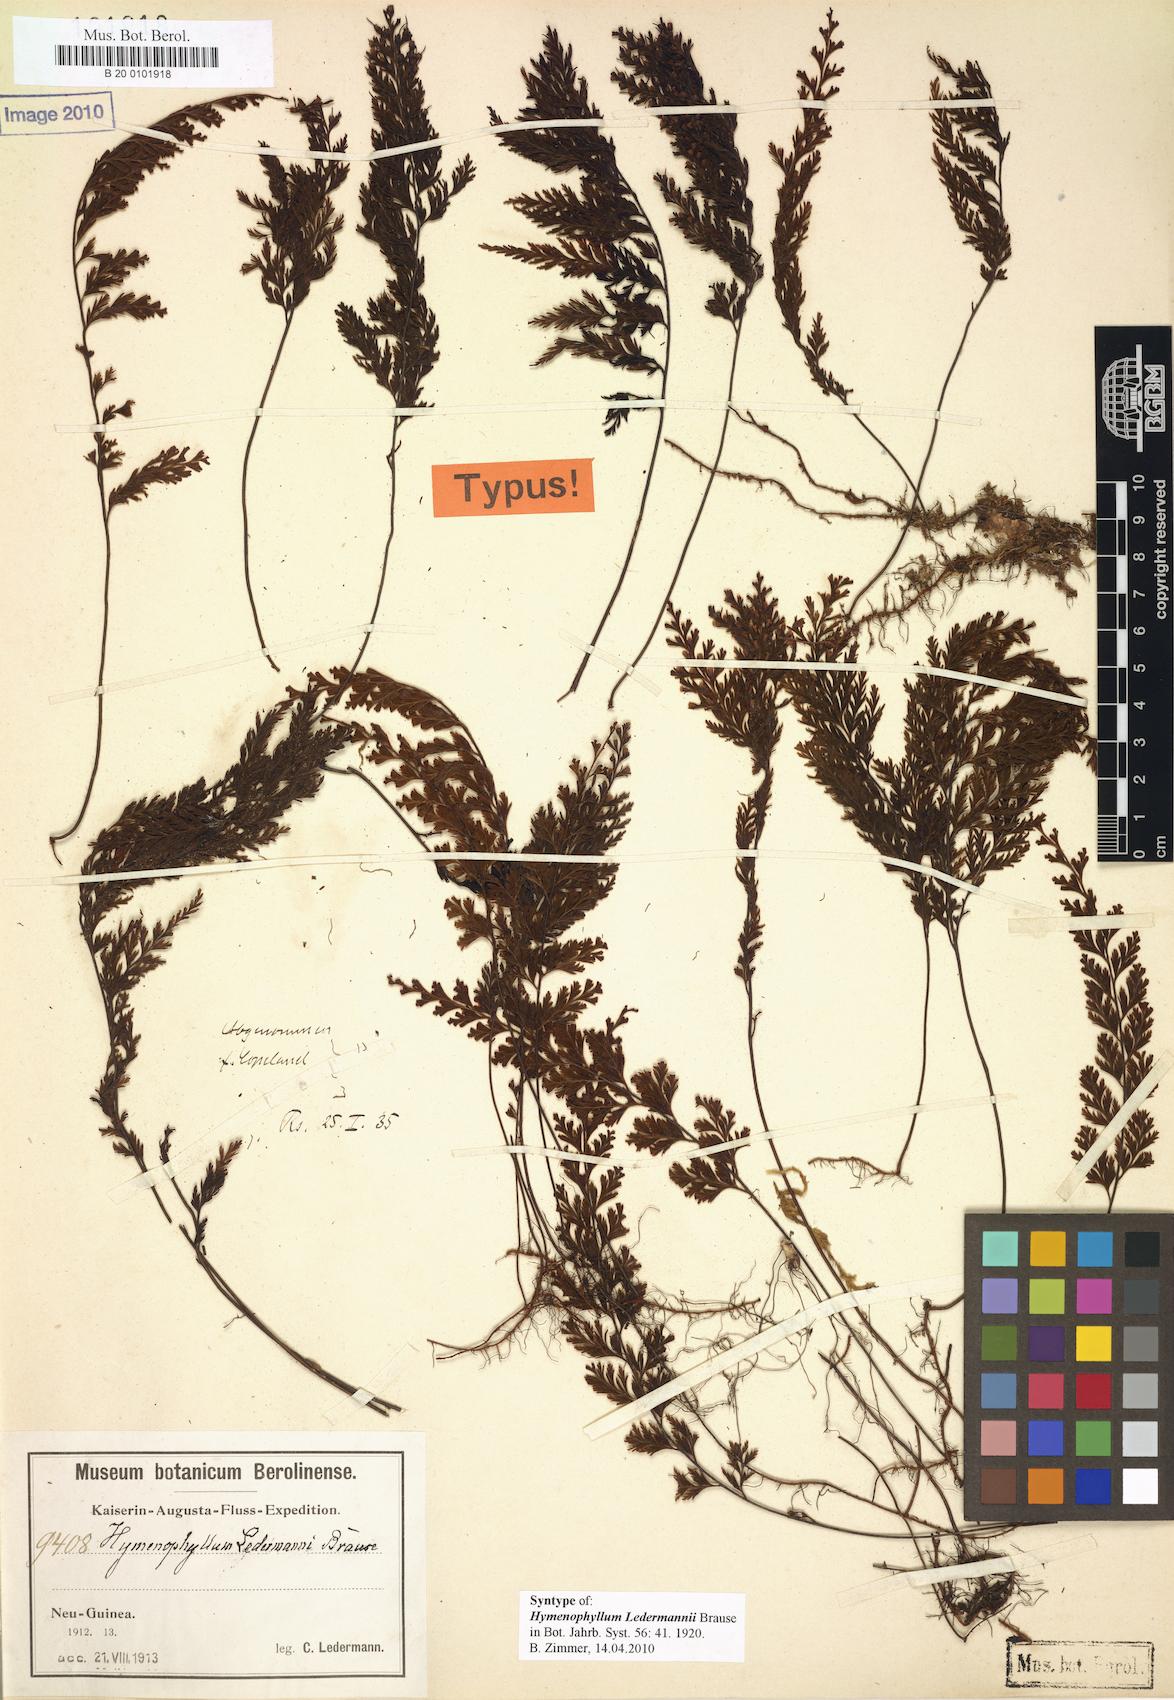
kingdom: Plantae
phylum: Tracheophyta
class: Polypodiopsida
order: Hymenophyllales
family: Hymenophyllaceae
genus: Hymenophyllum
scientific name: Hymenophyllum ledermannii
